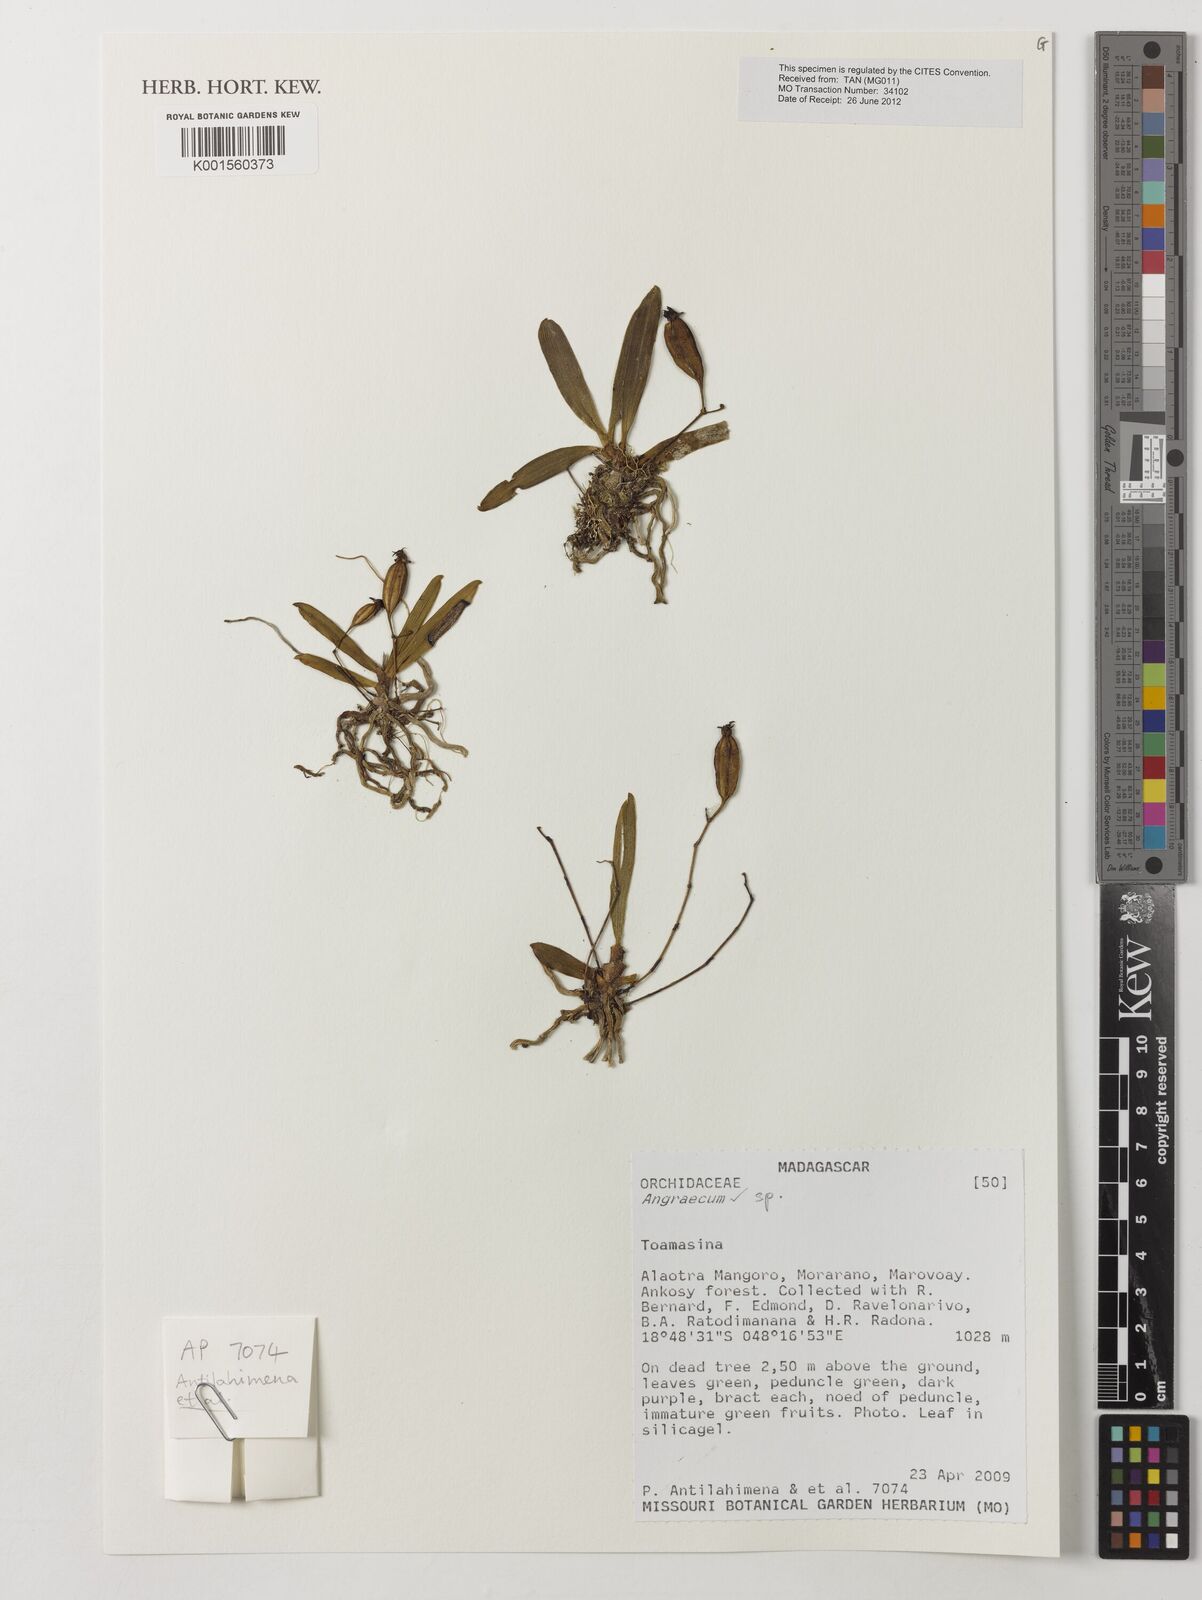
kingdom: Plantae
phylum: Tracheophyta
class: Liliopsida
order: Asparagales
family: Orchidaceae
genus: Angraecum
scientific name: Angraecum
